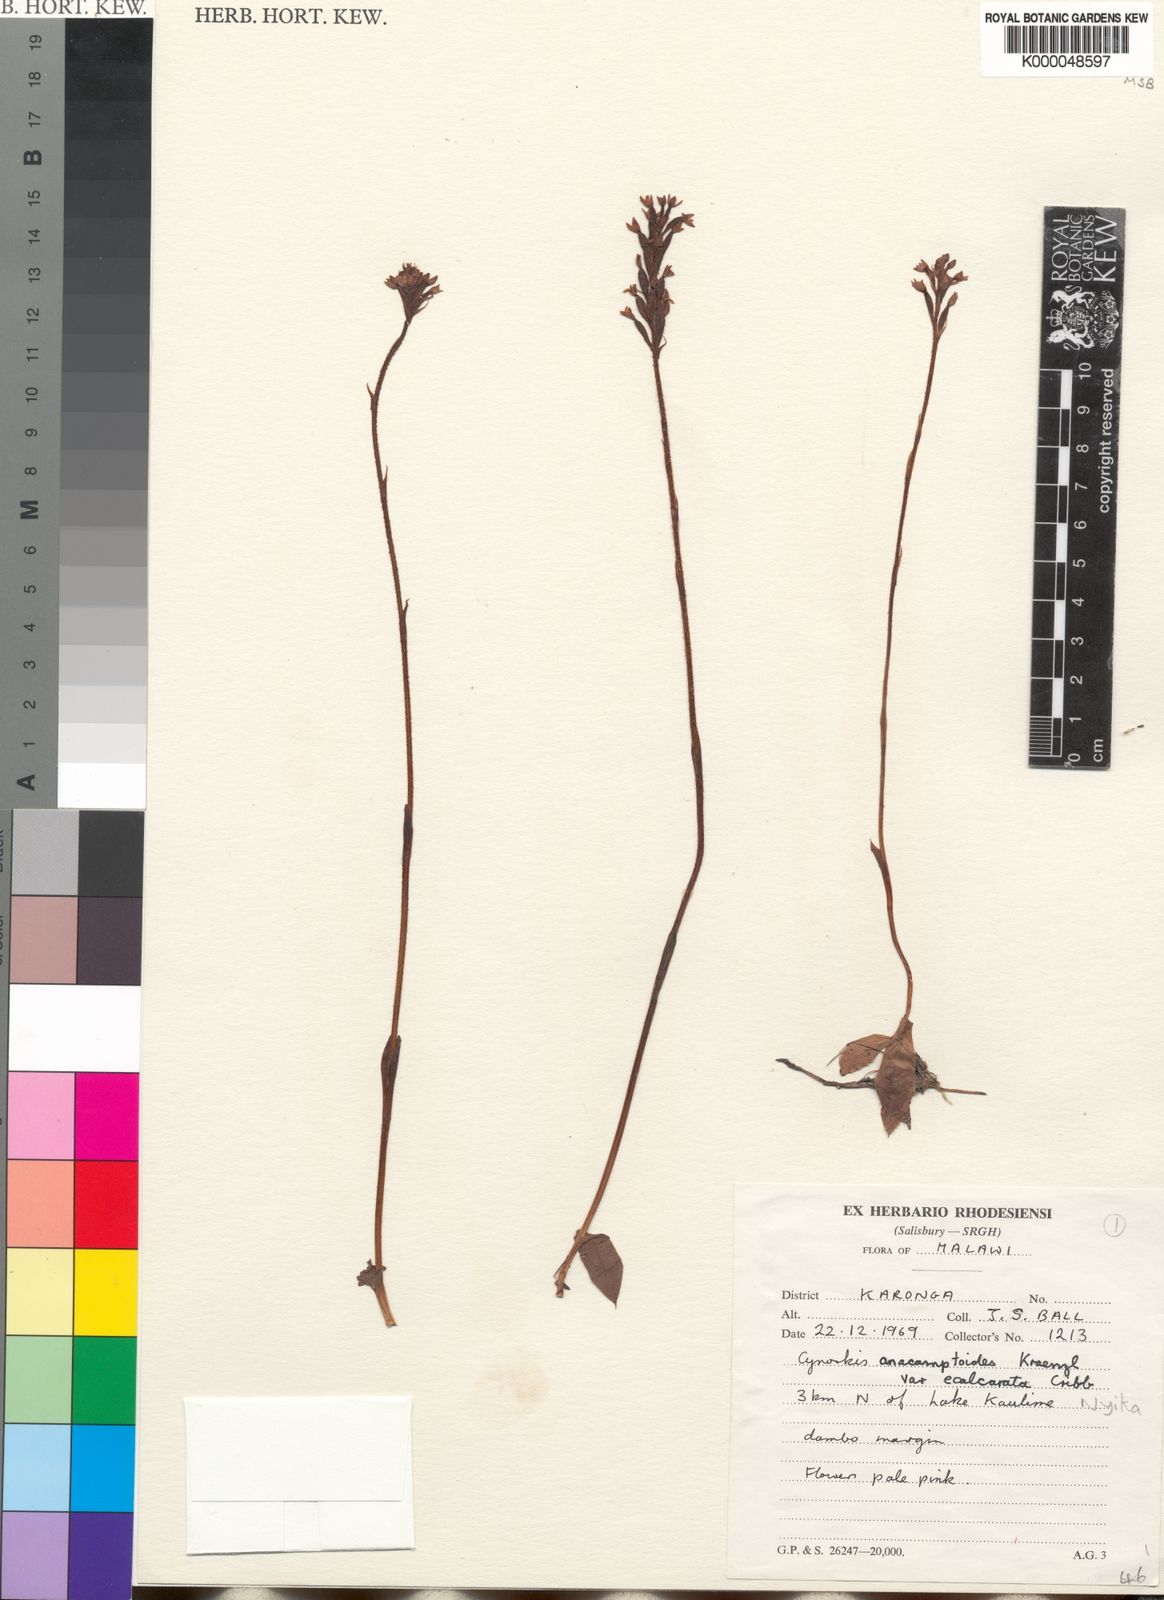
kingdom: Plantae
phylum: Tracheophyta
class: Liliopsida
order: Asparagales
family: Orchidaceae
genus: Cynorkis
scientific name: Cynorkis anacamptoides
